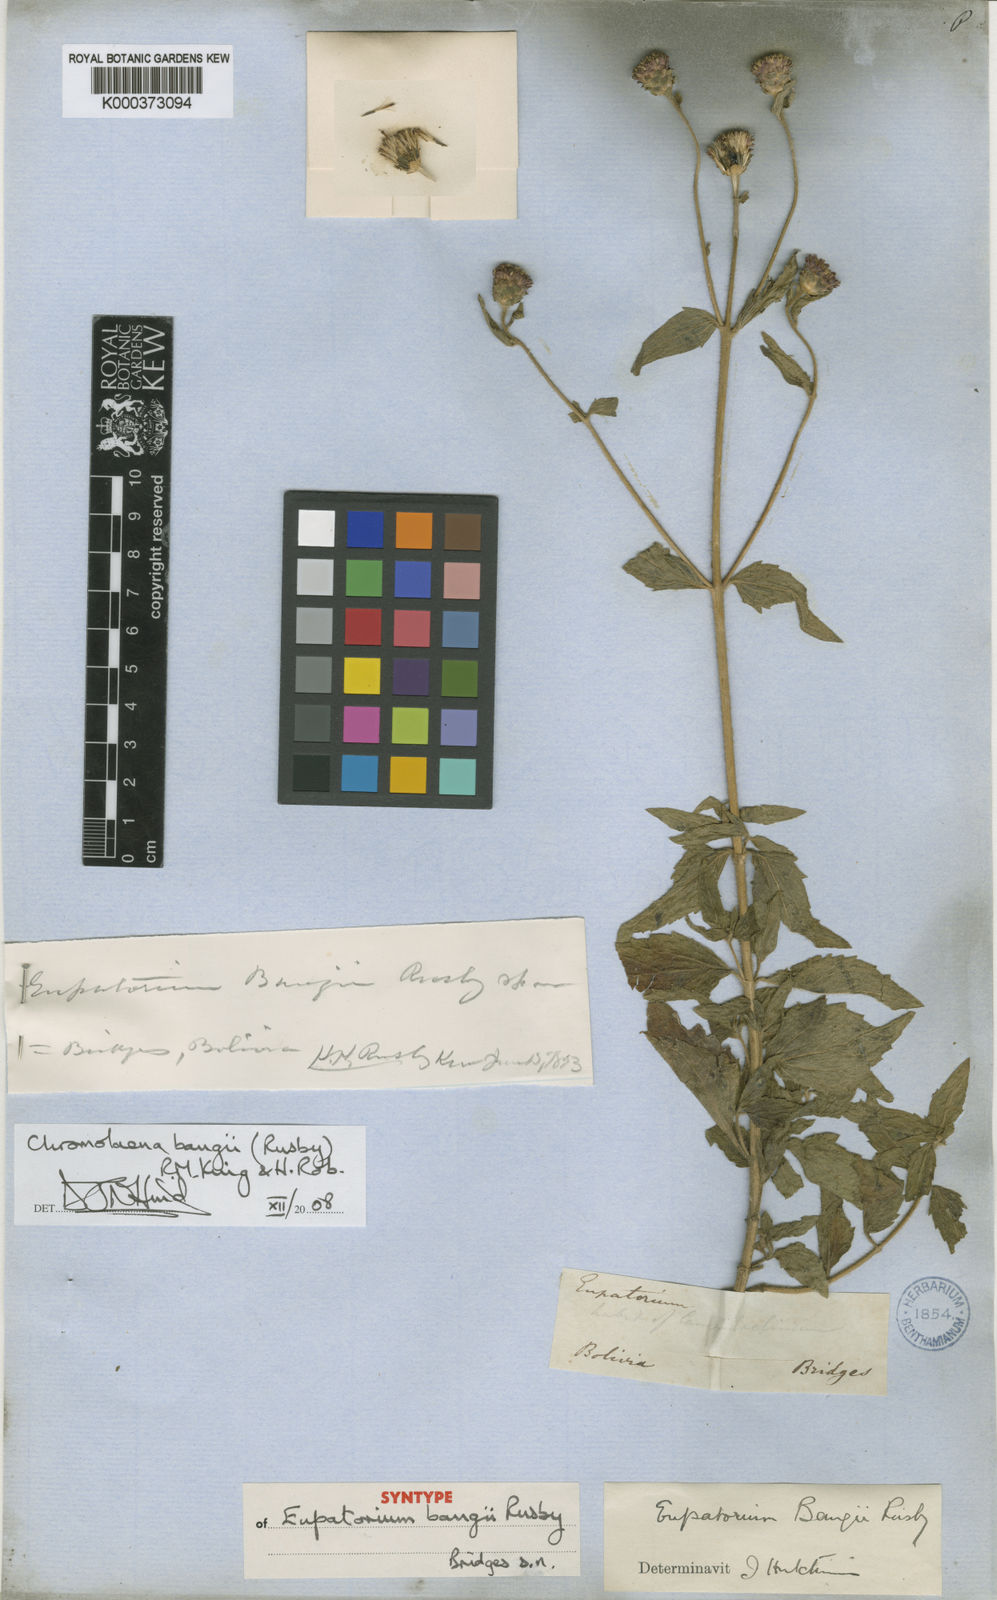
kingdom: Plantae
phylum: Tracheophyta
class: Magnoliopsida
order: Asterales
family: Asteraceae
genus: Chromolaena
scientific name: Chromolaena bangii
